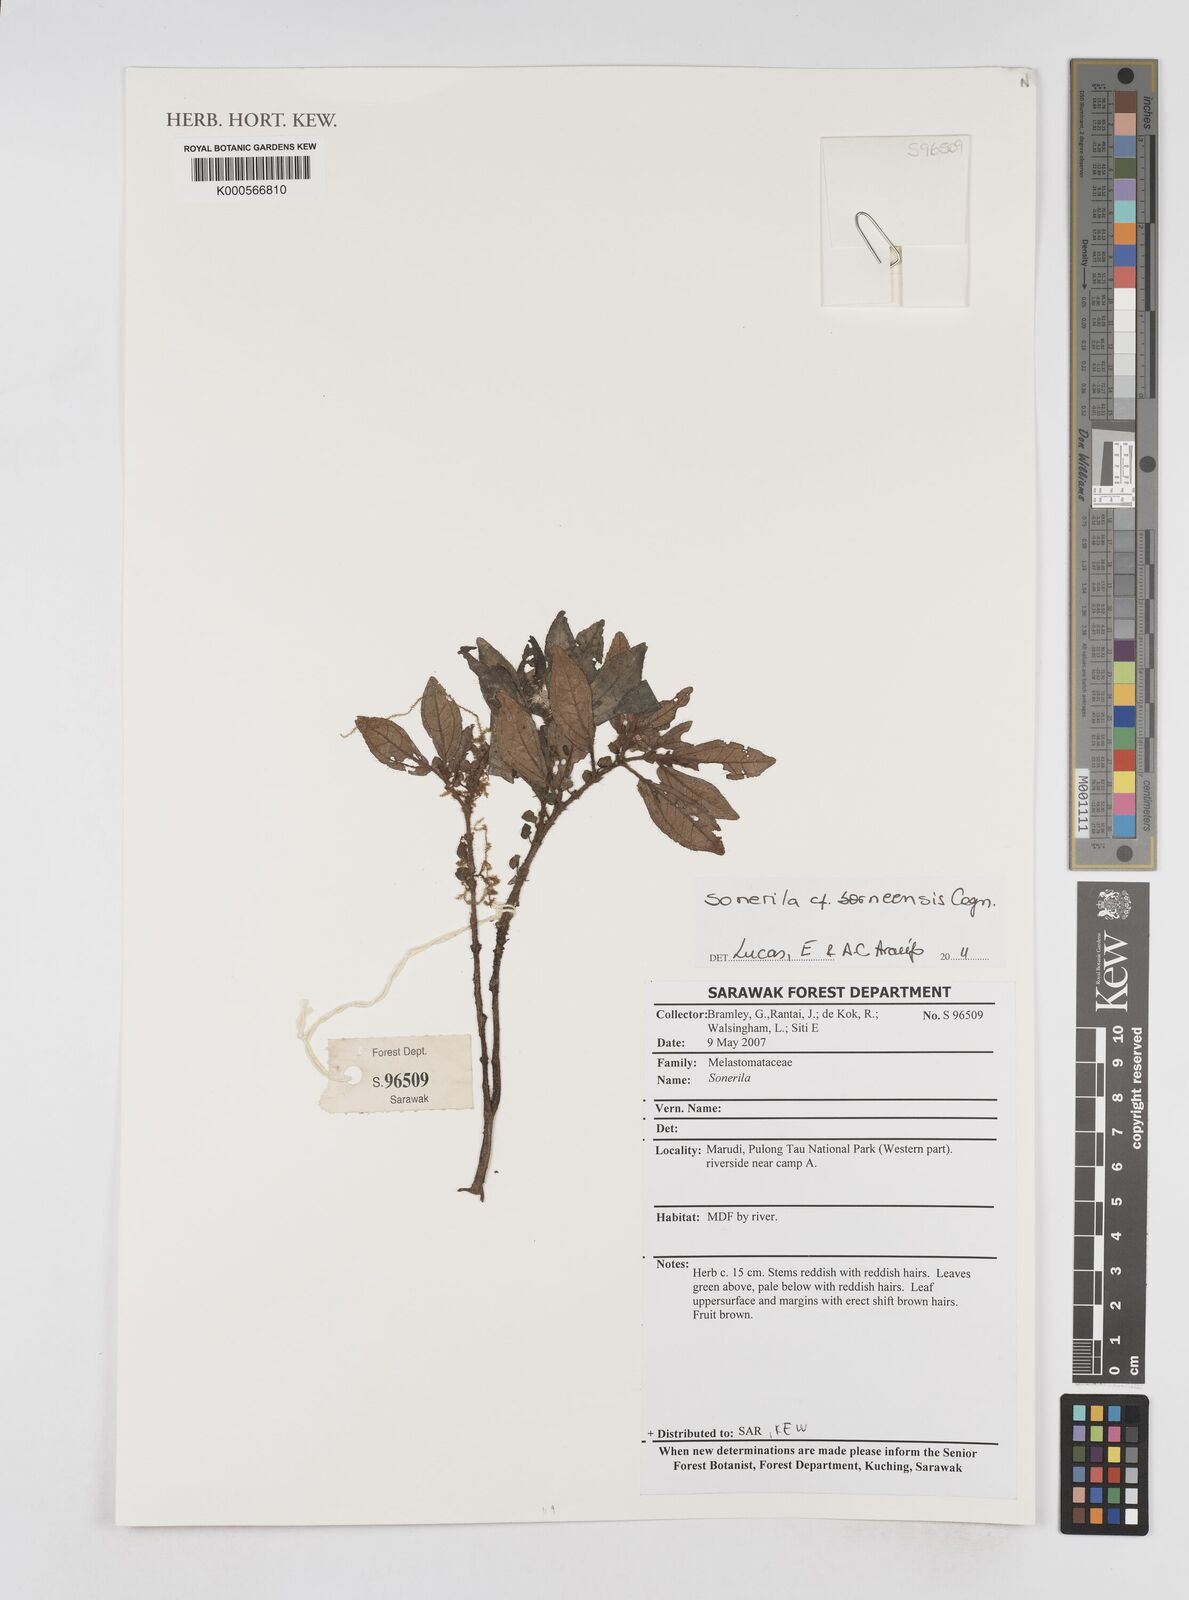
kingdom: Plantae
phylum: Tracheophyta
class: Magnoliopsida
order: Myrtales
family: Melastomataceae
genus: Sonerila
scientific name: Sonerila borneensis
